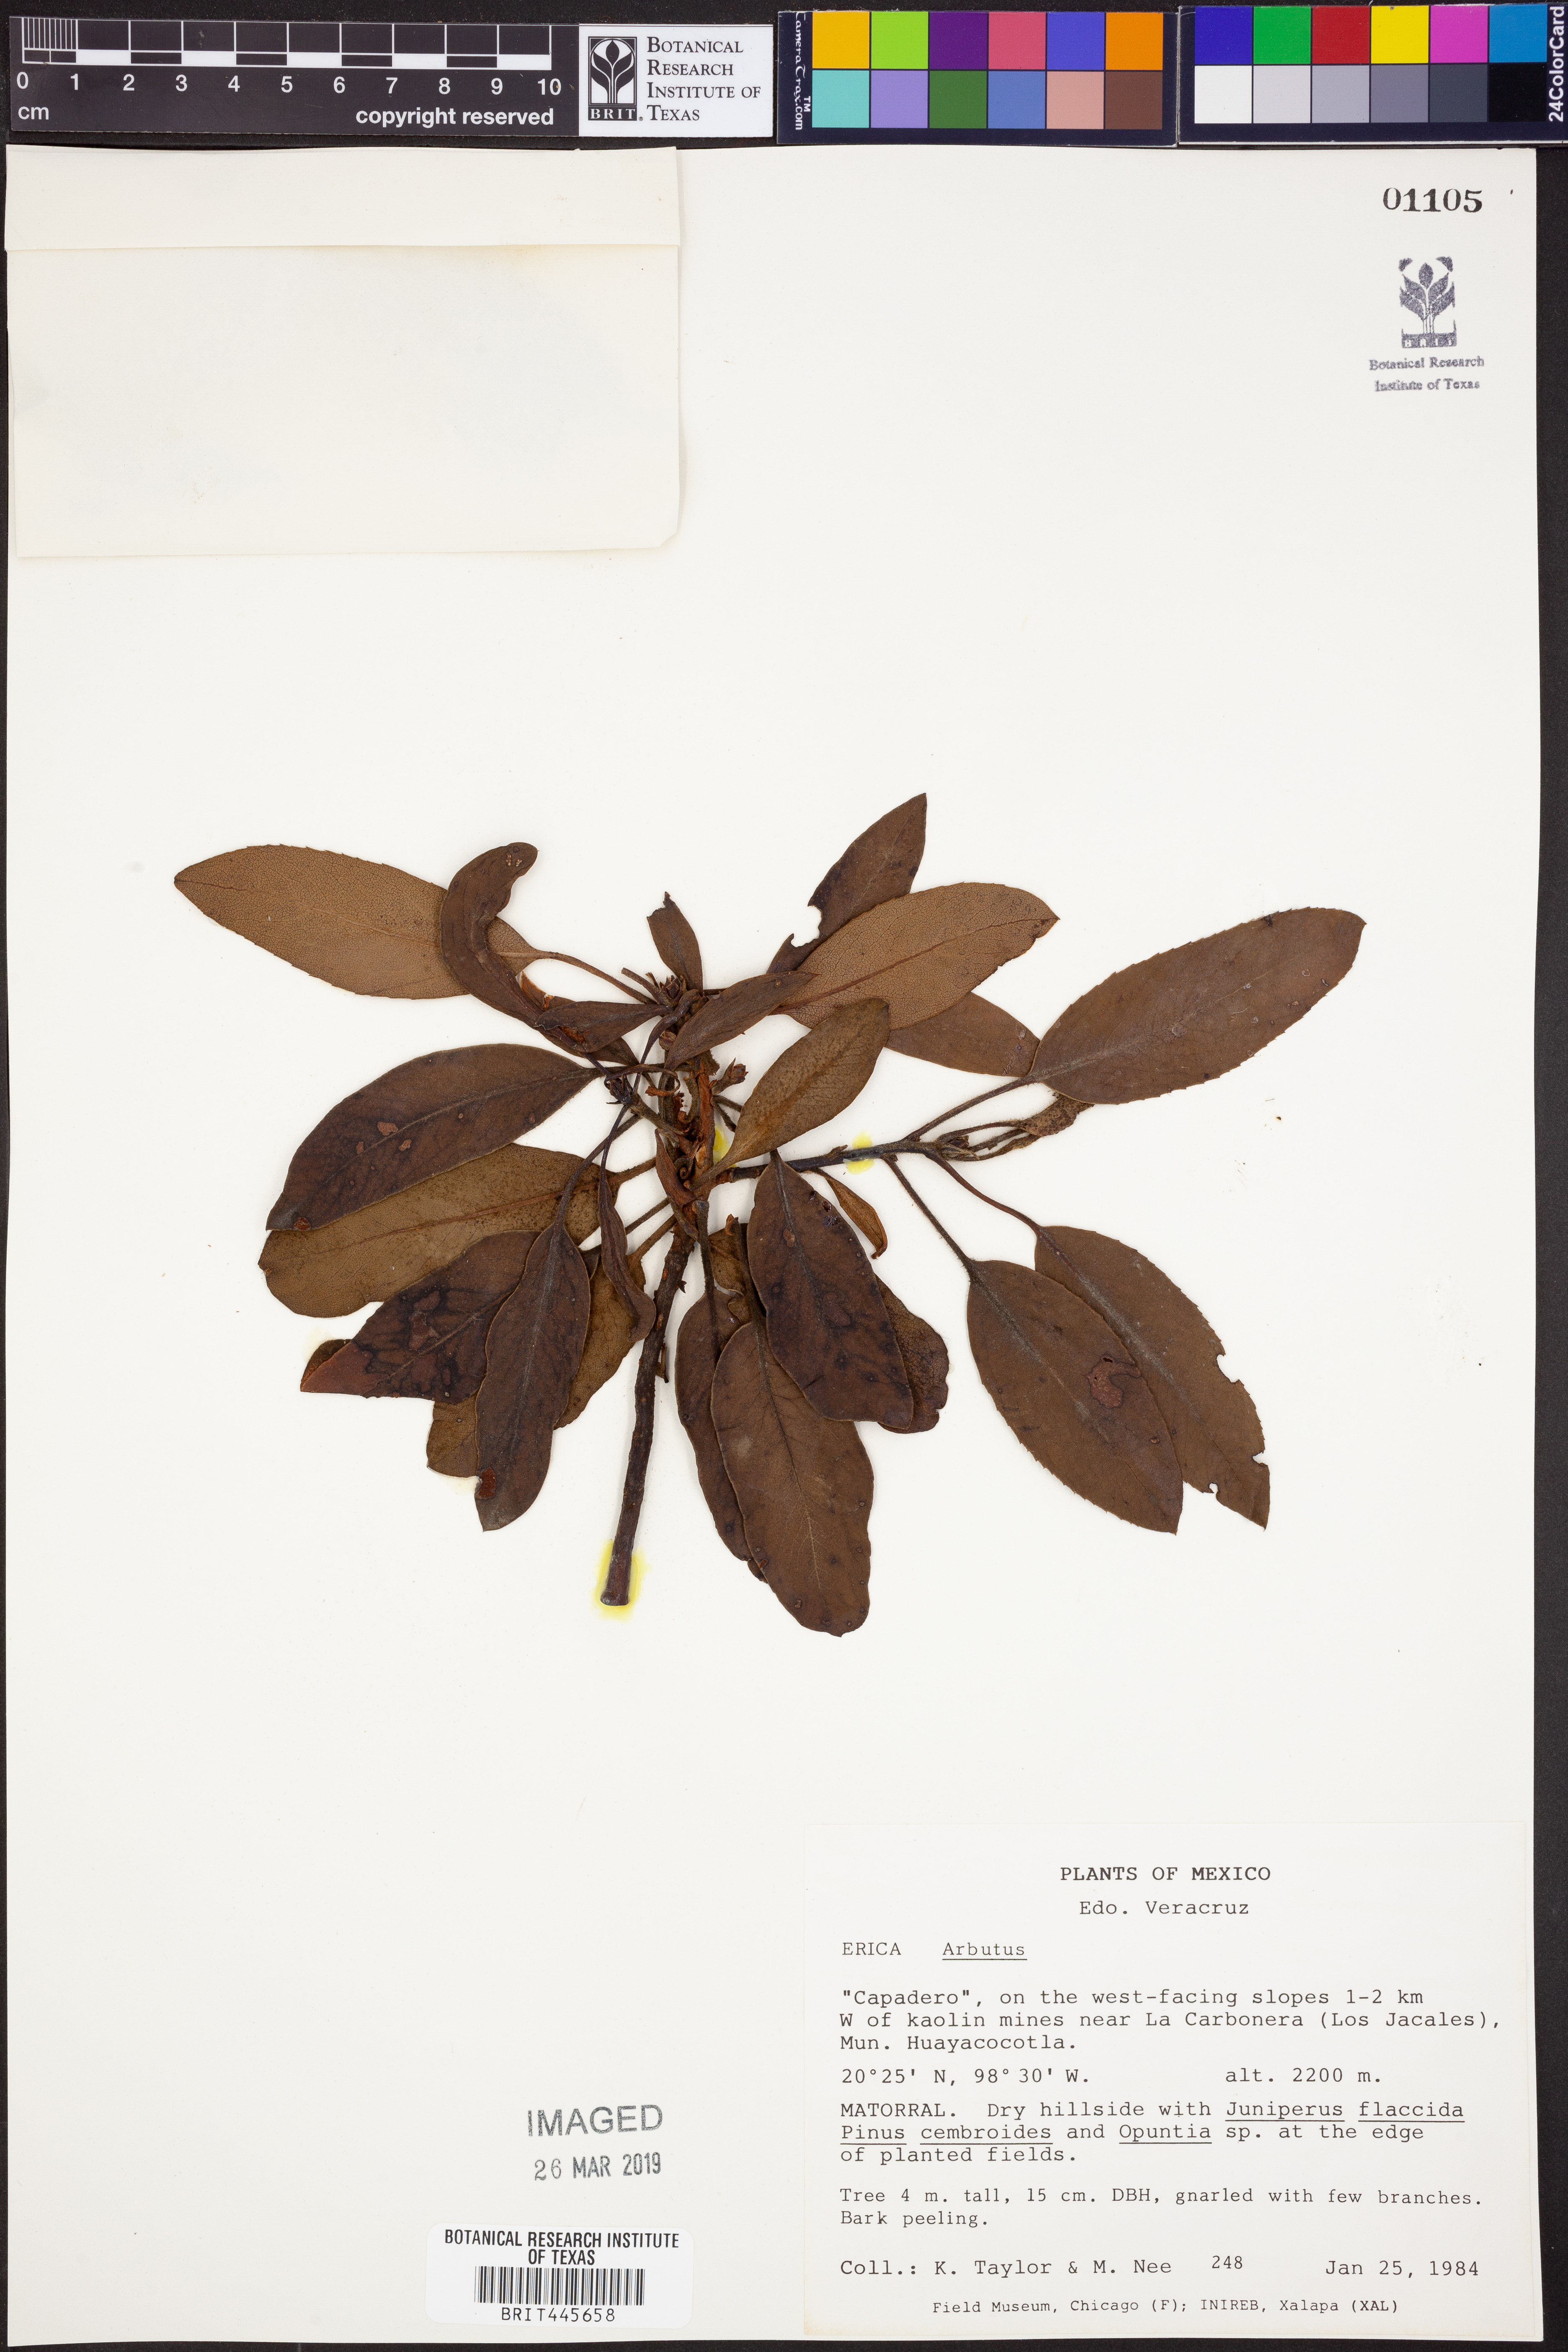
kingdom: Plantae
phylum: Tracheophyta
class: Magnoliopsida
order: Ericales
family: Ericaceae
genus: Arbutus
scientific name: Arbutus
